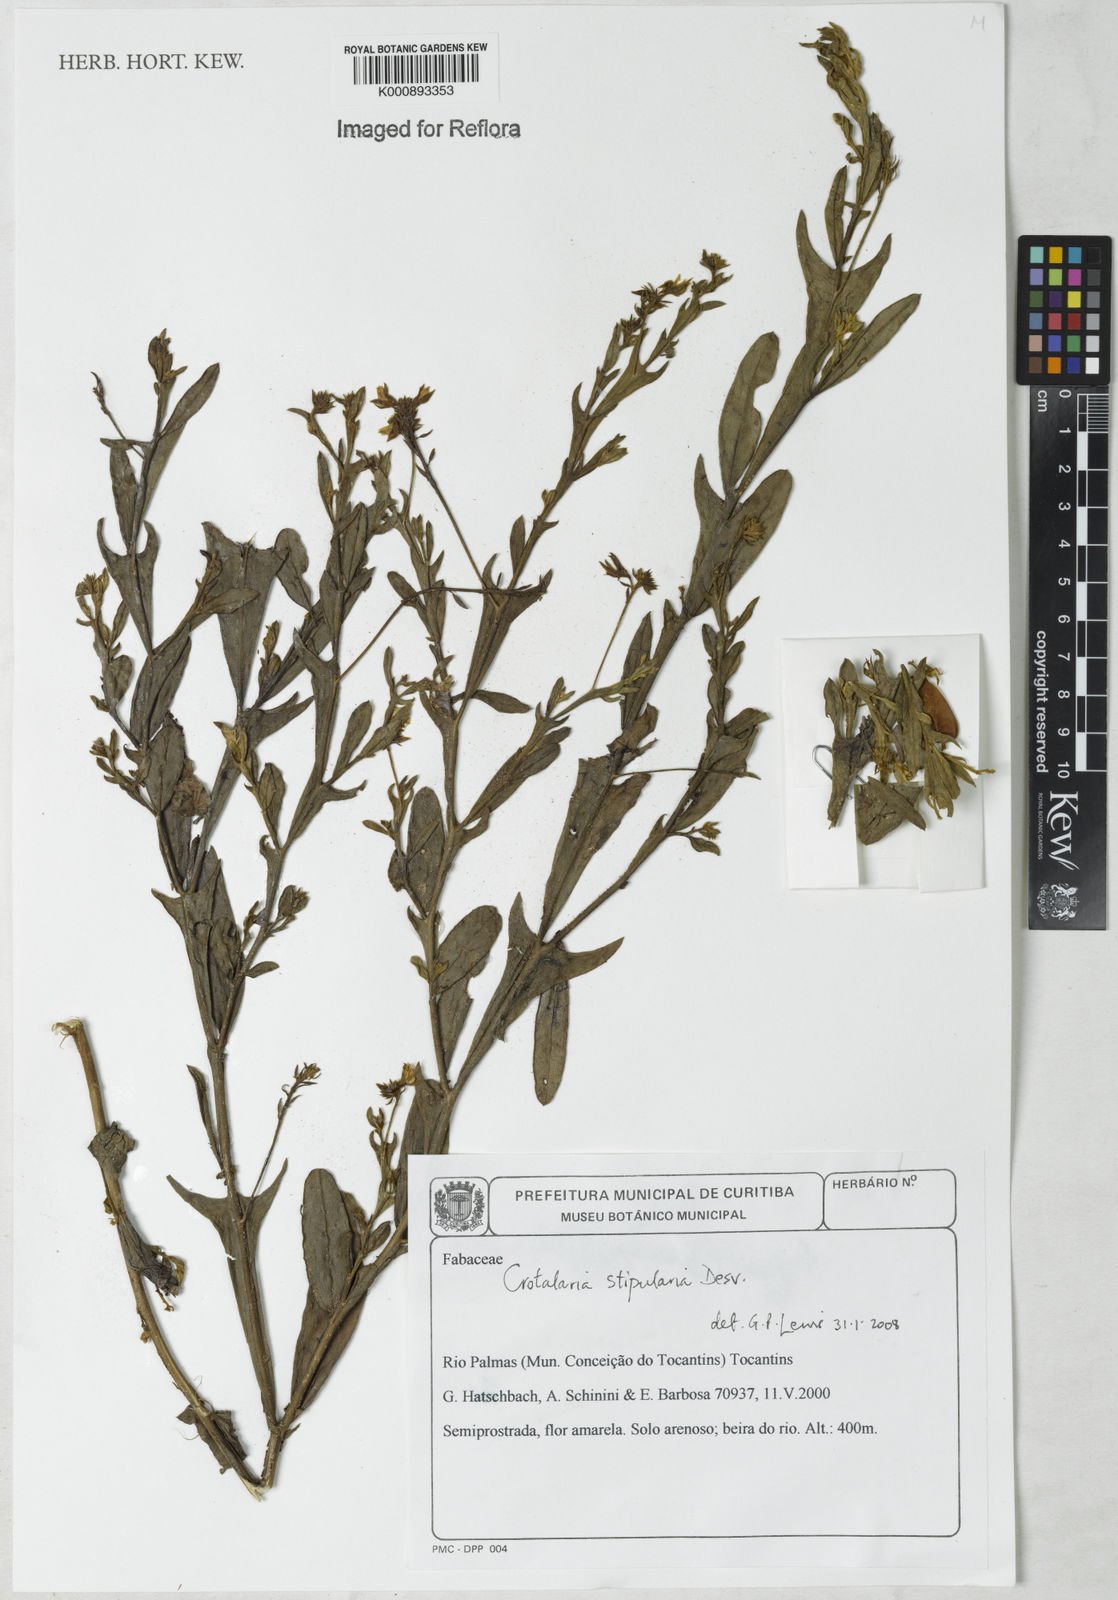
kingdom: Plantae
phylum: Tracheophyta
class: Magnoliopsida
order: Fabales
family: Fabaceae
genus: Crotalaria
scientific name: Crotalaria stipularia
